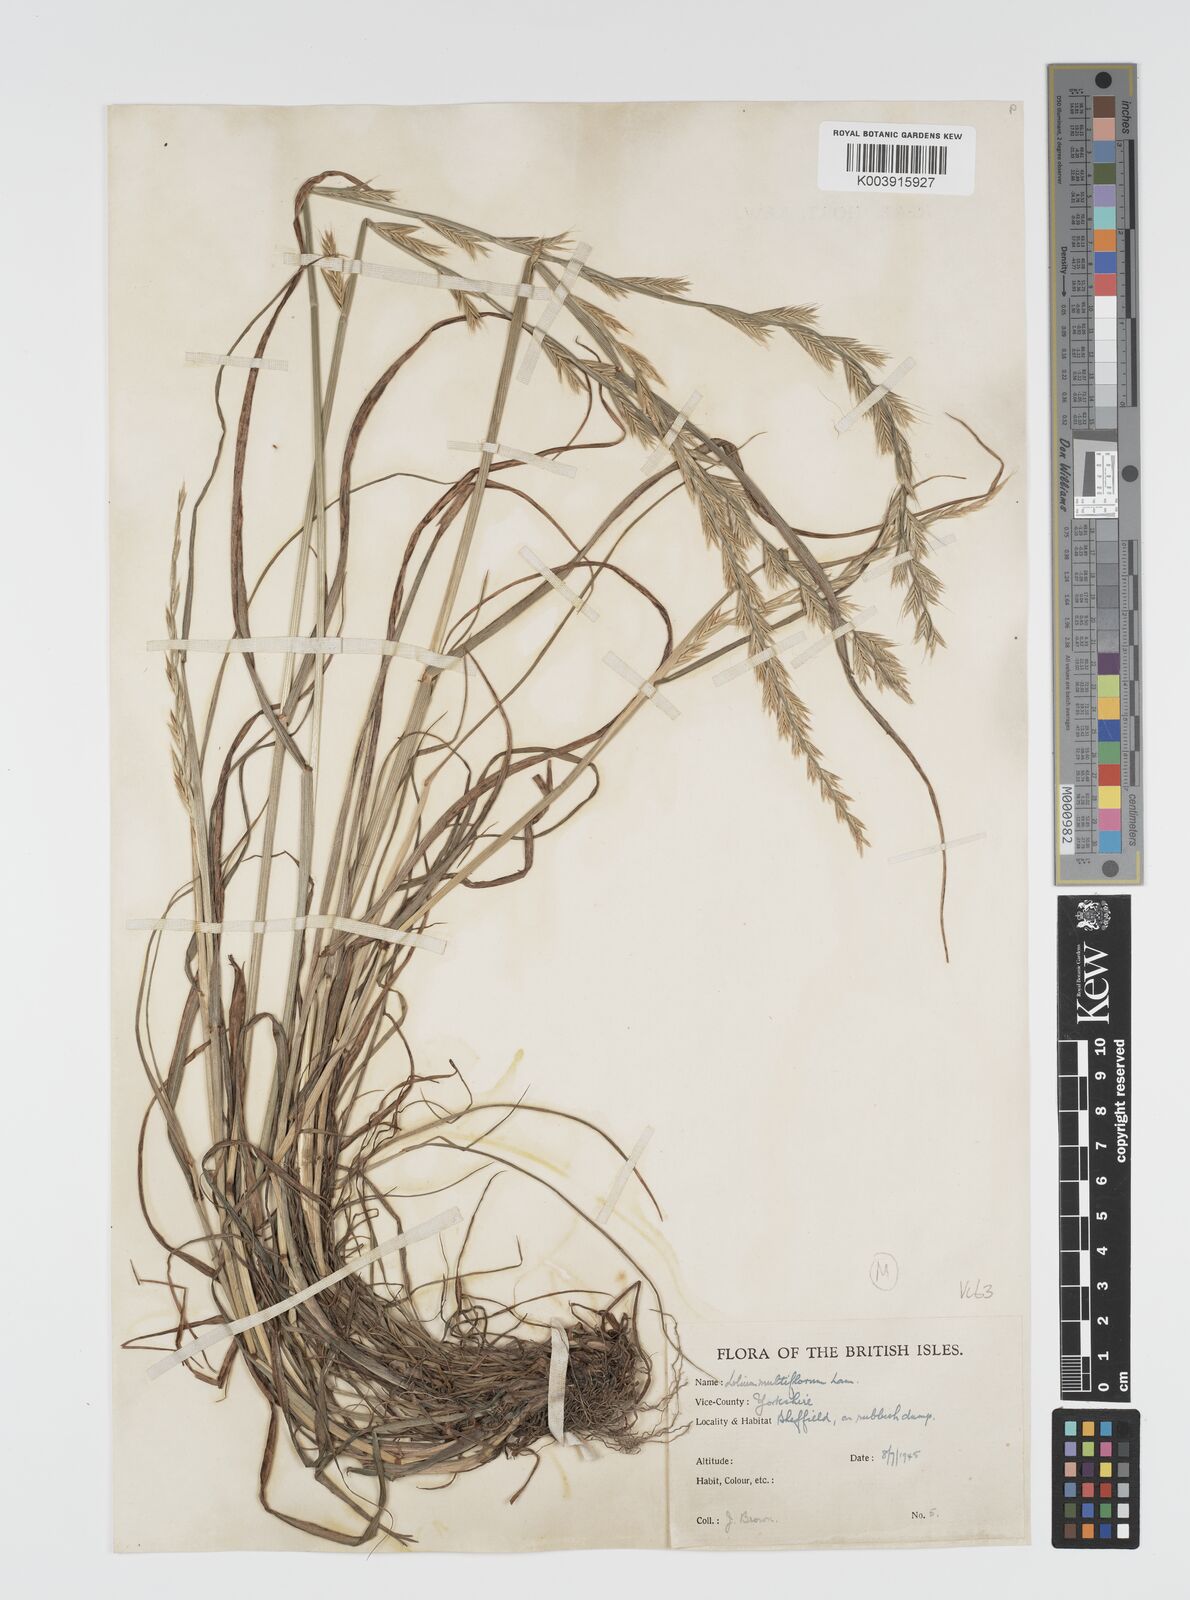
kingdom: Plantae
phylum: Tracheophyta
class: Liliopsida
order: Poales
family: Poaceae
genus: Lolium
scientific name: Lolium multiflorum
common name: Annual ryegrass
